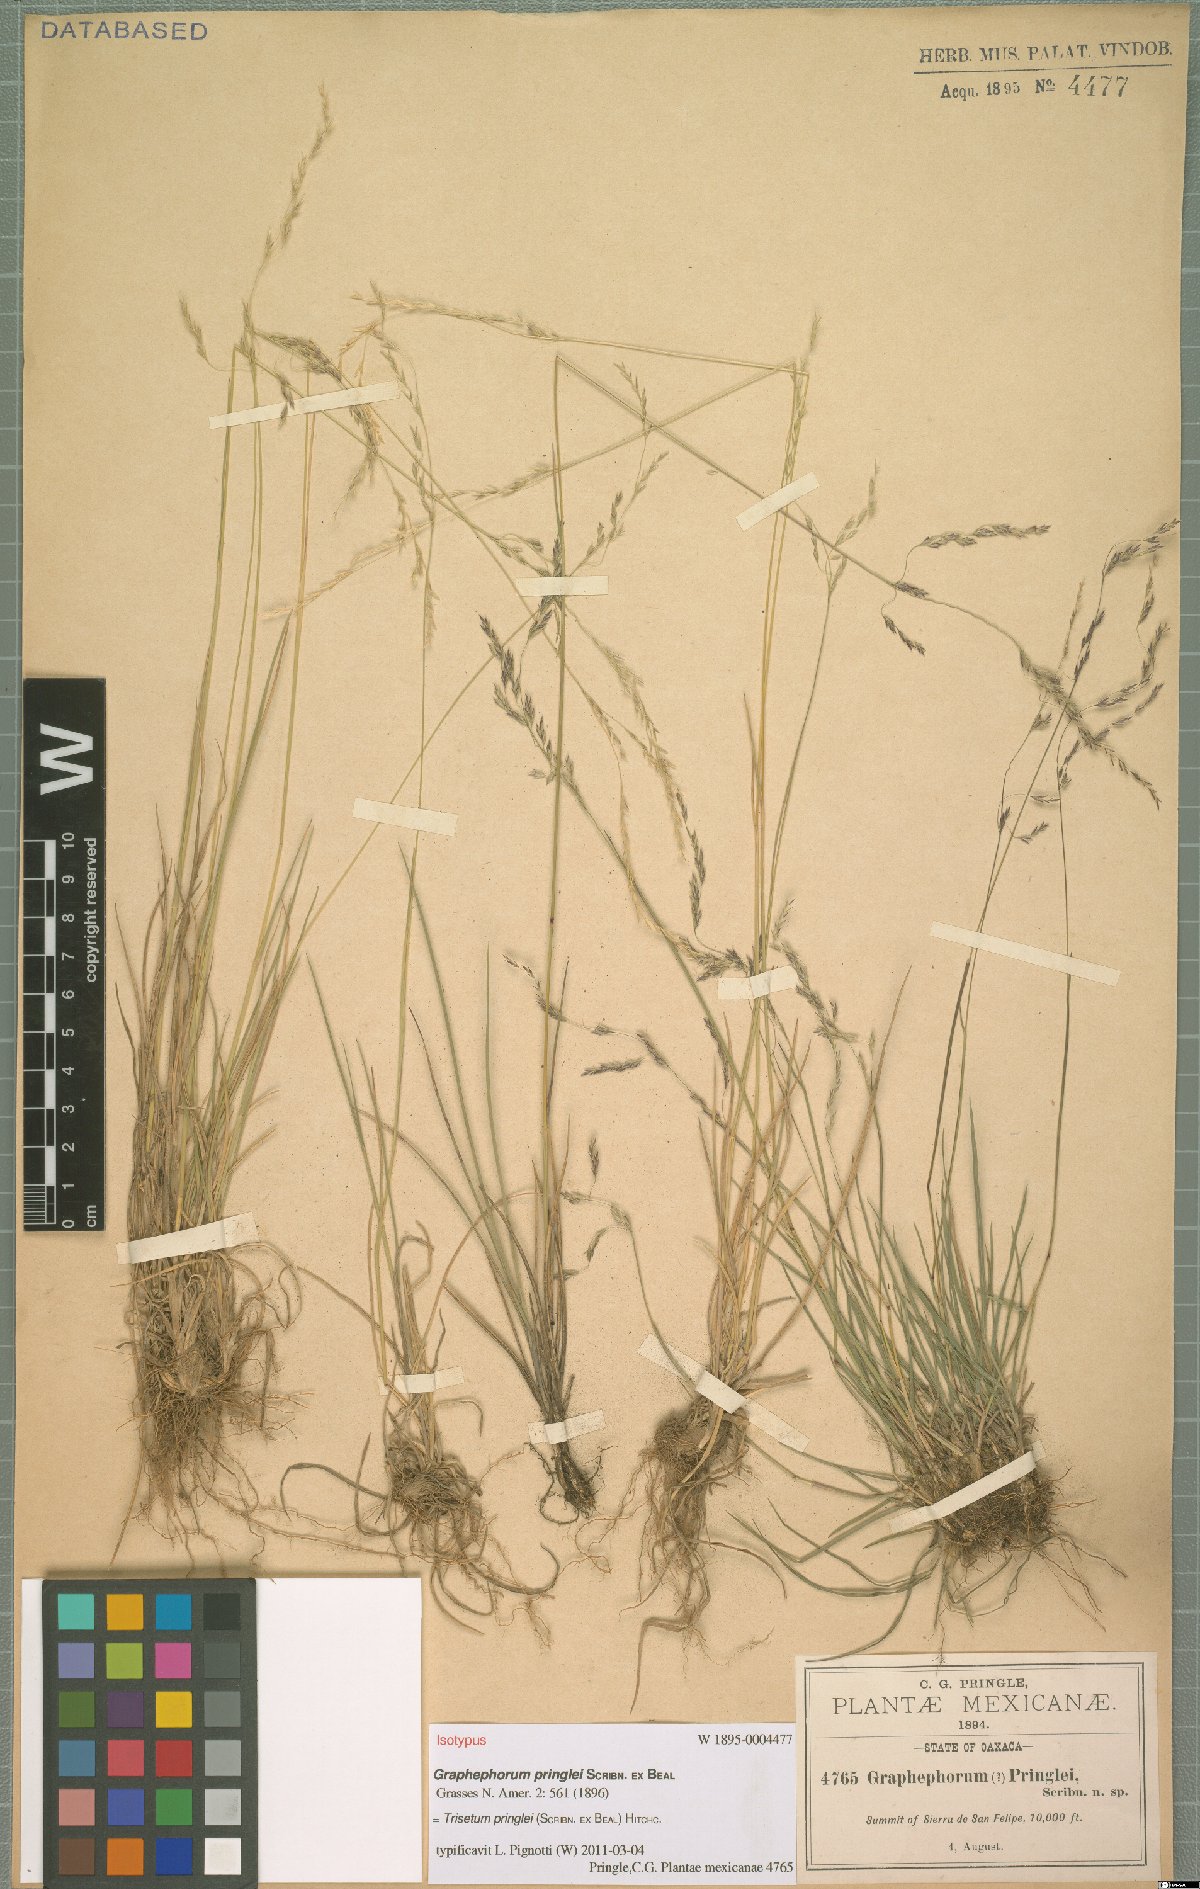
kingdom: Plantae
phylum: Tracheophyta
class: Liliopsida
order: Poales
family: Poaceae
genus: Peyritschia
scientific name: Peyritschia graphephoroides
